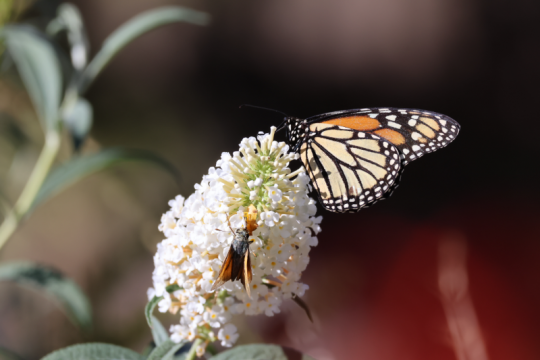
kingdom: Animalia
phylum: Arthropoda
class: Insecta
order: Lepidoptera
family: Nymphalidae
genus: Danaus
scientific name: Danaus plexippus
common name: Monarch
